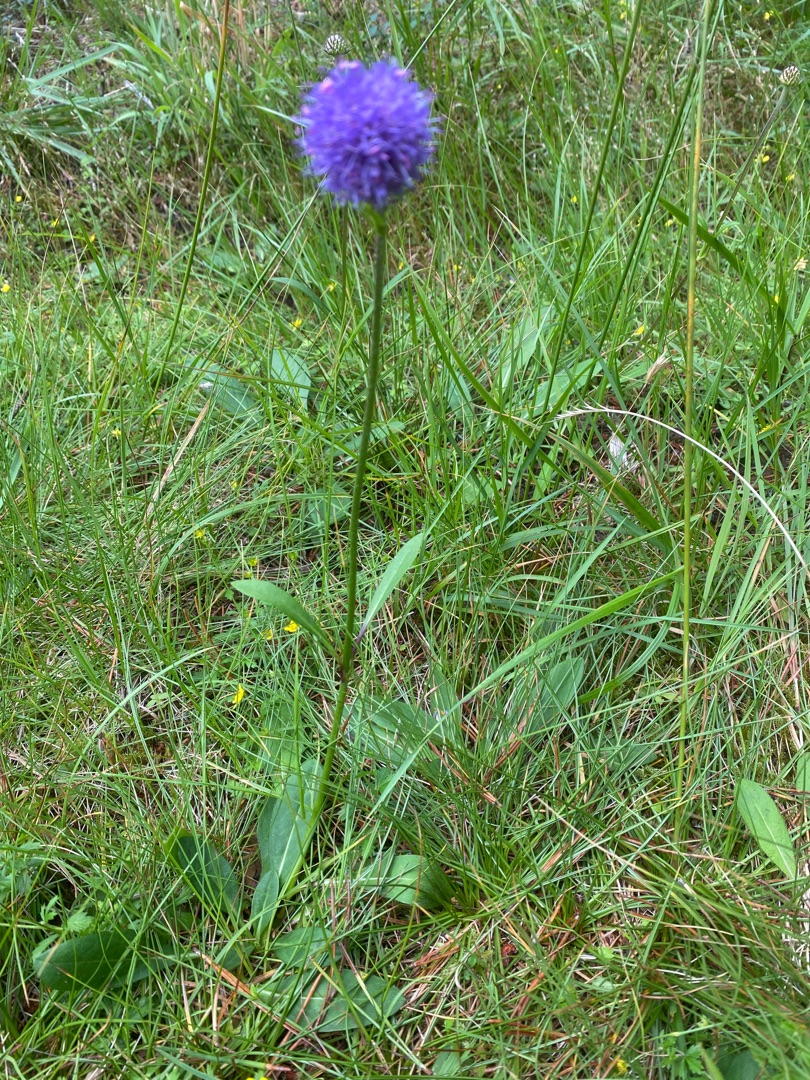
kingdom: Plantae
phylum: Tracheophyta
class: Magnoliopsida
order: Dipsacales
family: Caprifoliaceae
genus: Succisa
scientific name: Succisa pratensis
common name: Djævelsbid
